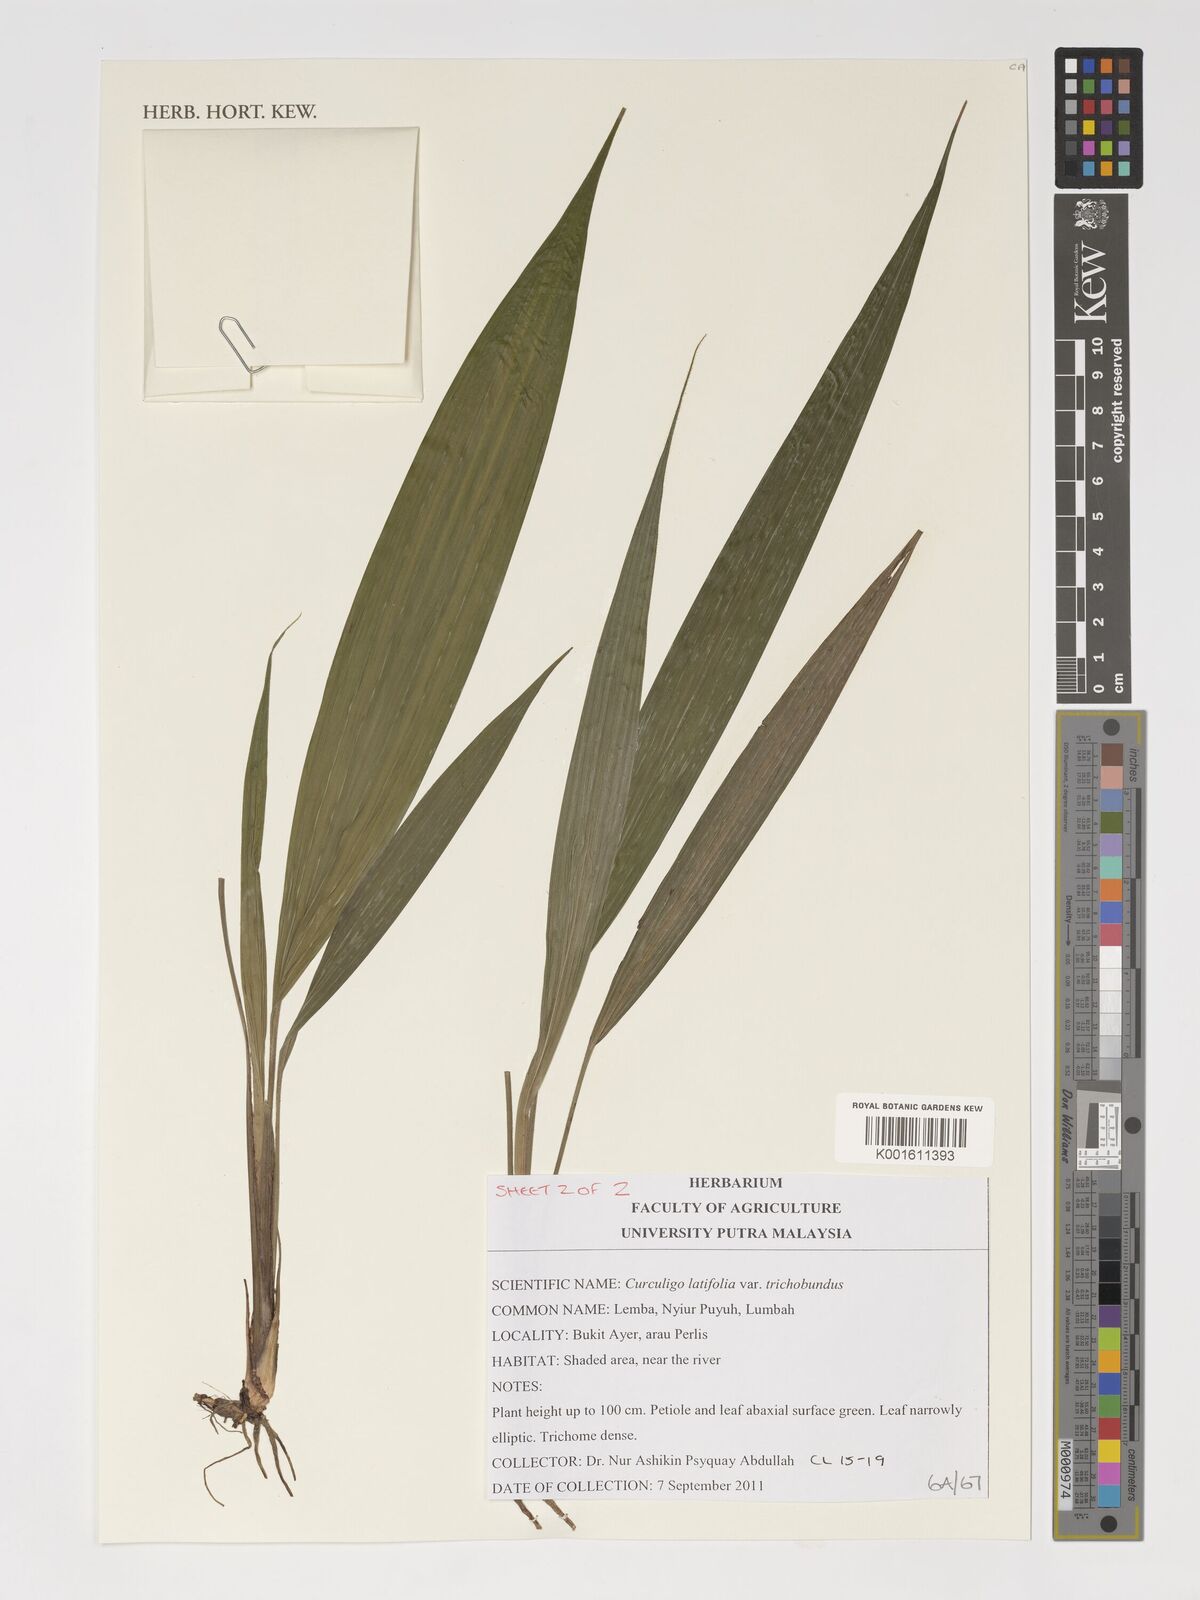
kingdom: Plantae
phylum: Tracheophyta
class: Liliopsida
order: Asparagales
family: Hypoxidaceae
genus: Curculigo
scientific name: Curculigo latifolia
